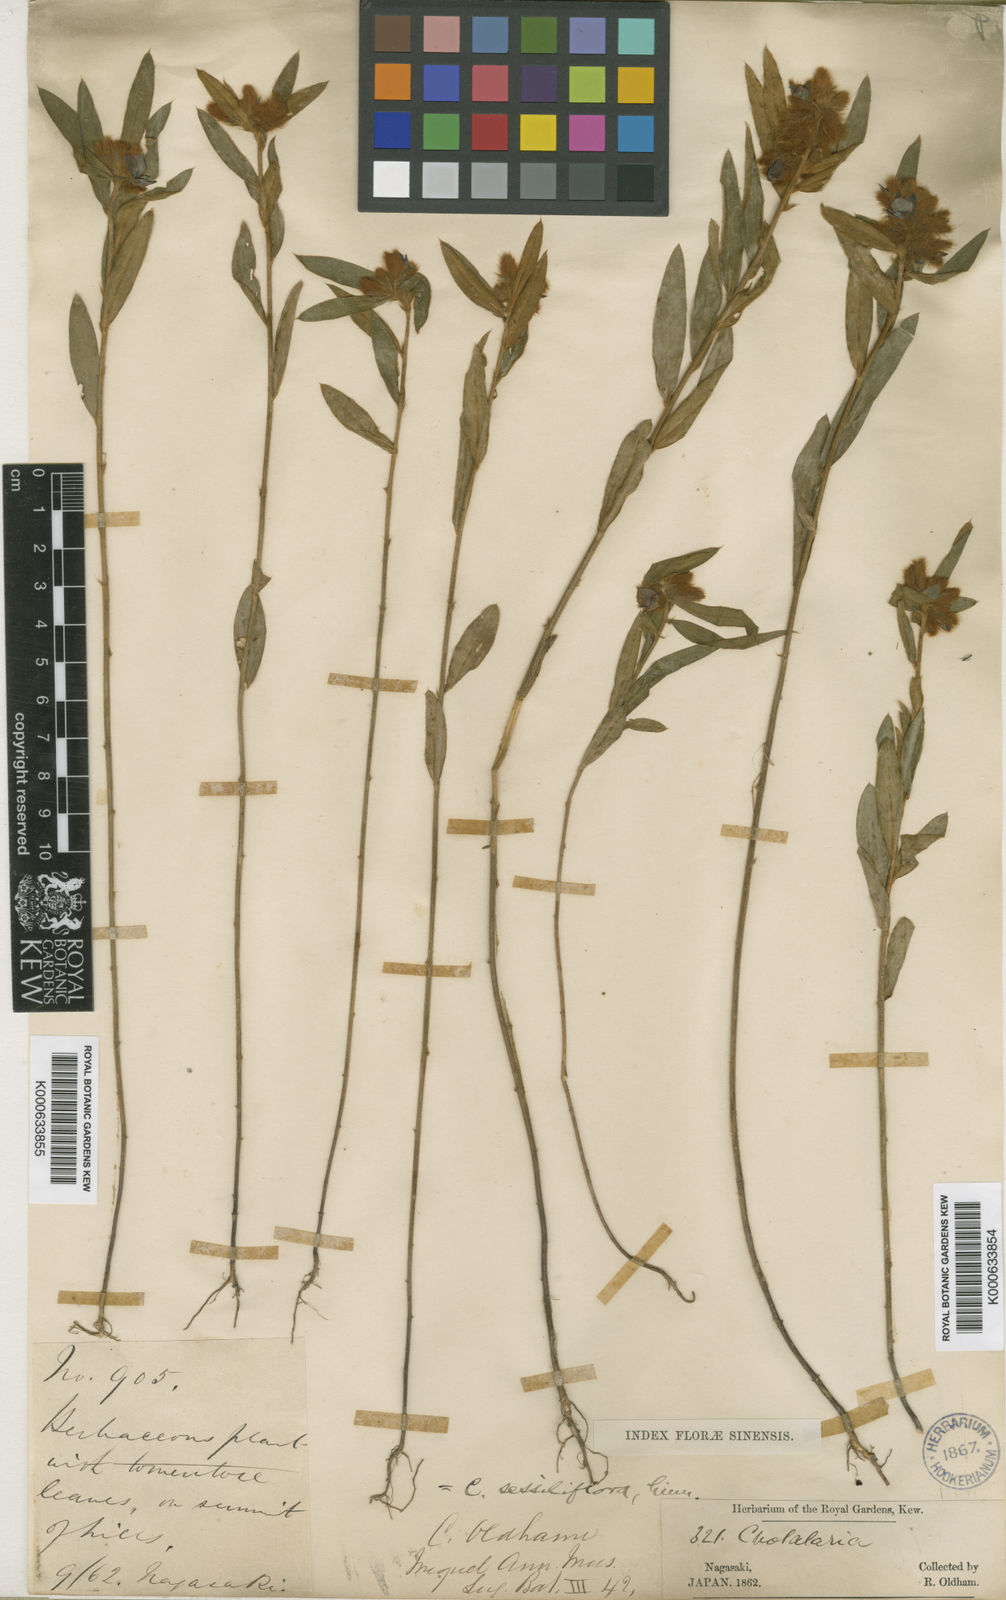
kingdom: Plantae
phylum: Tracheophyta
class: Magnoliopsida
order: Fabales
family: Fabaceae
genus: Crotalaria
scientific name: Crotalaria sessiliflora
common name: Rattlebox
